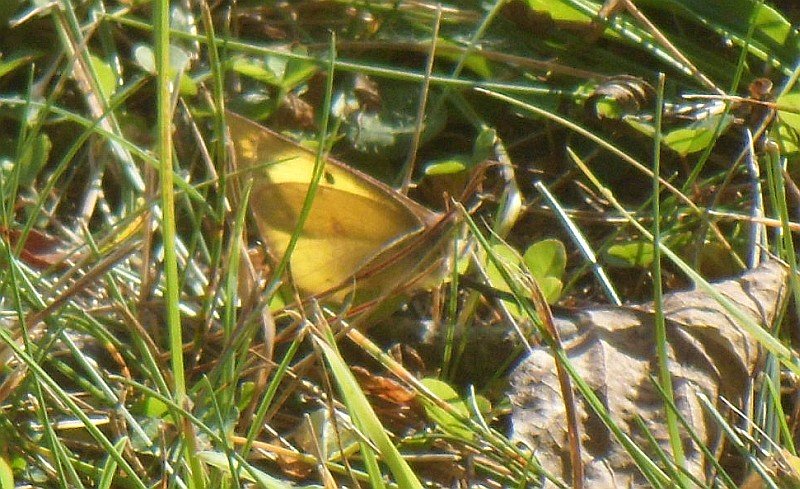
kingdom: Animalia
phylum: Arthropoda
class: Insecta
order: Lepidoptera
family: Pieridae
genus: Colias
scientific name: Colias philodice
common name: Clouded Sulphur
